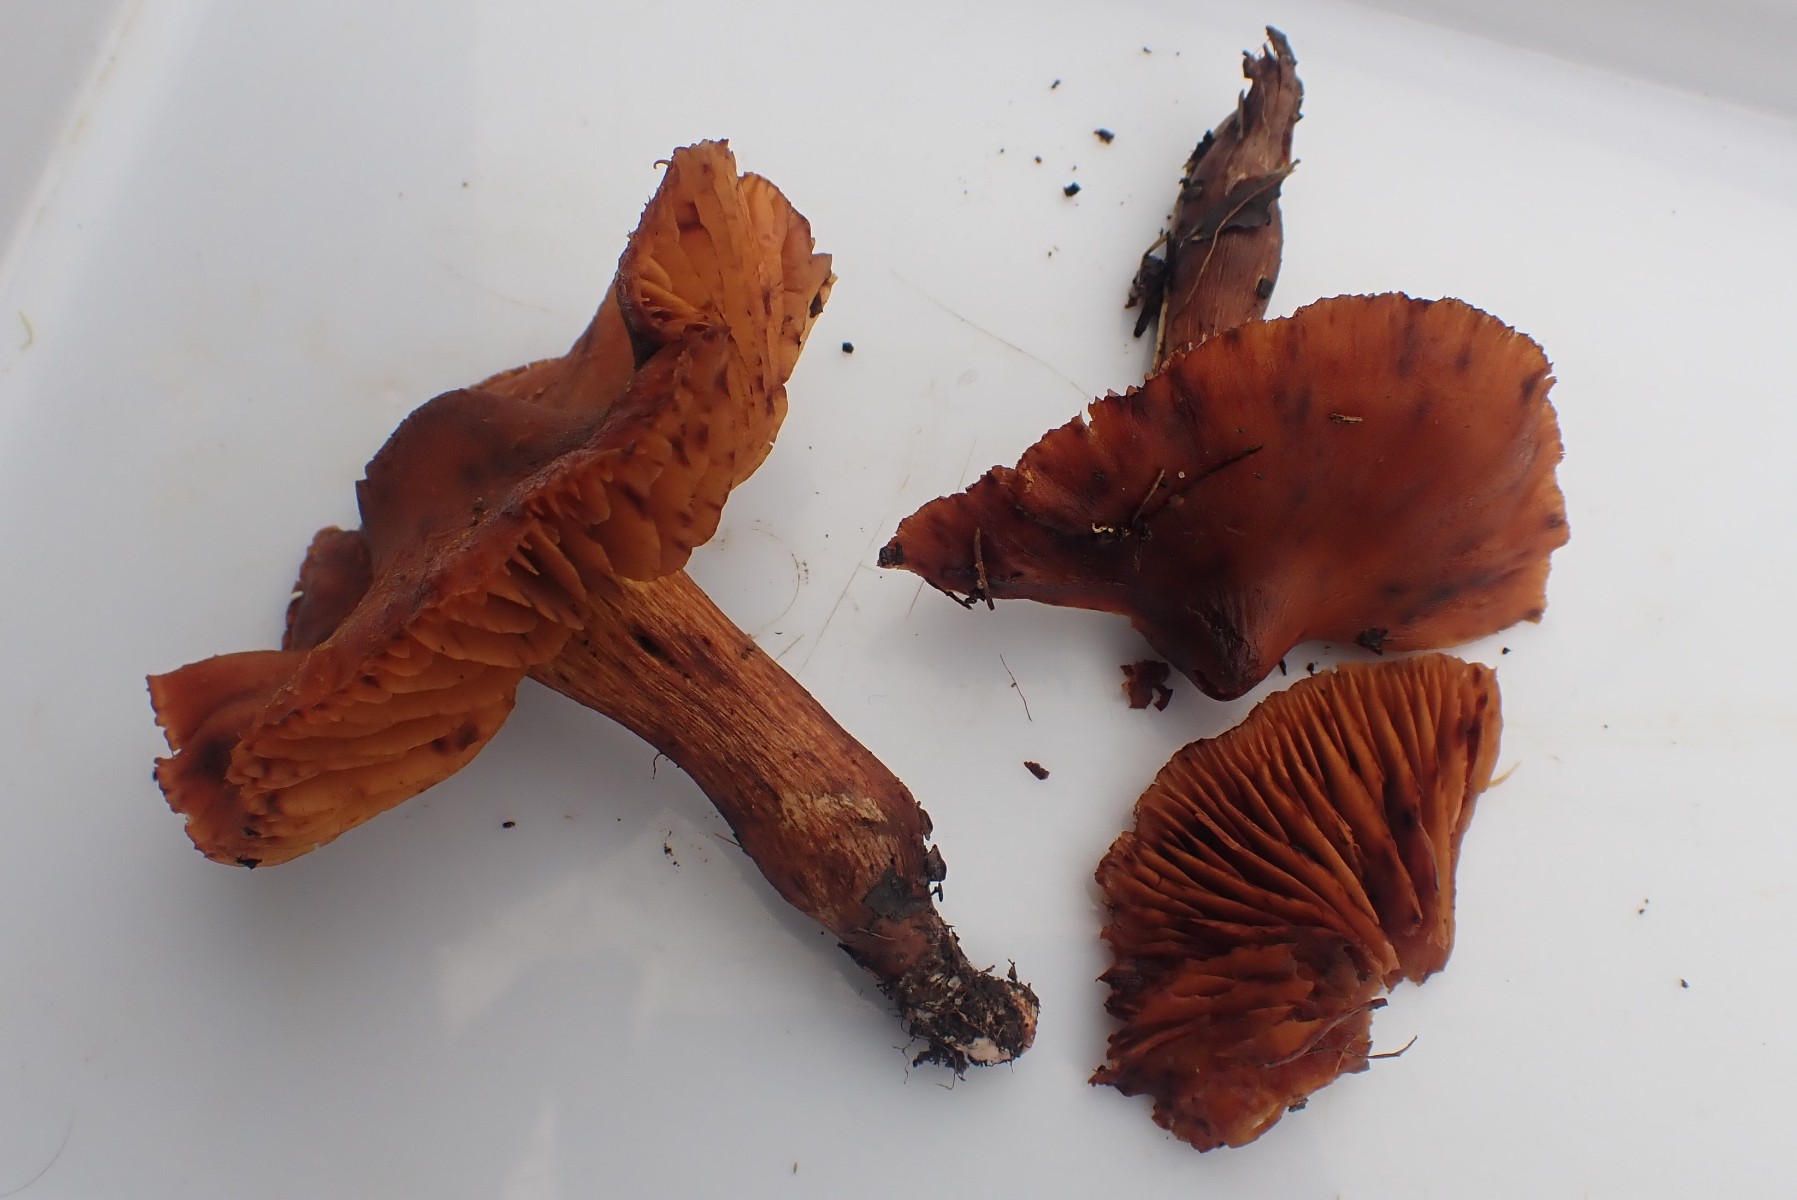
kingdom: Fungi
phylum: Basidiomycota
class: Agaricomycetes
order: Agaricales
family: Cortinariaceae
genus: Cortinarius
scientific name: Cortinarius
